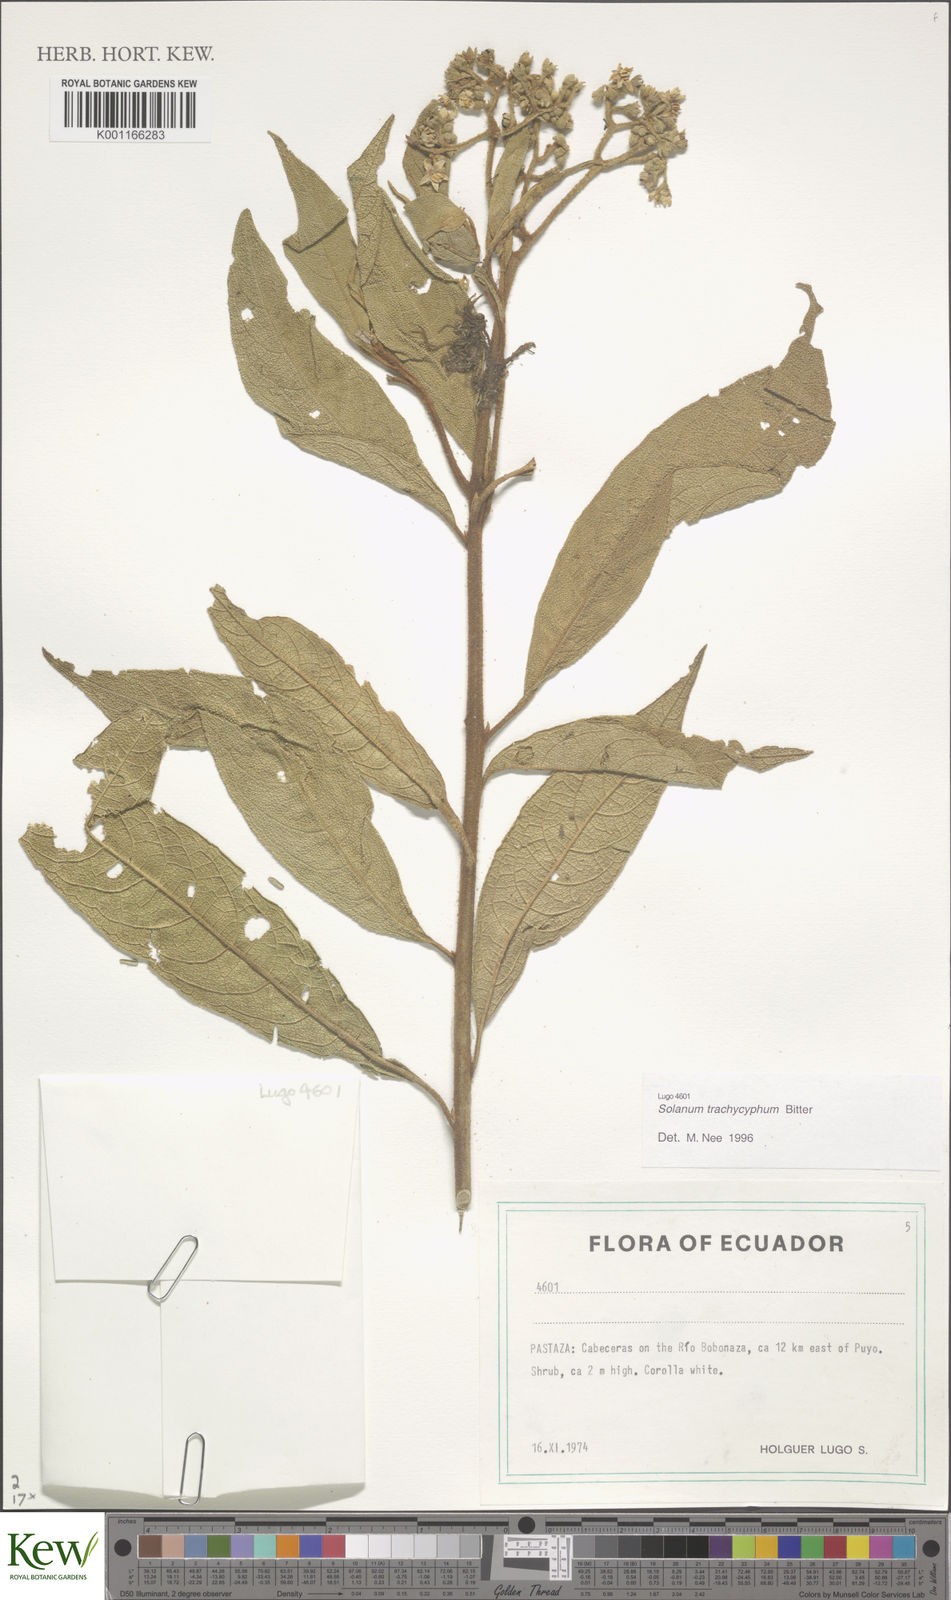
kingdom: Plantae
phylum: Tracheophyta
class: Magnoliopsida
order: Solanales
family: Solanaceae
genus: Solanum
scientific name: Solanum trachycyphum
